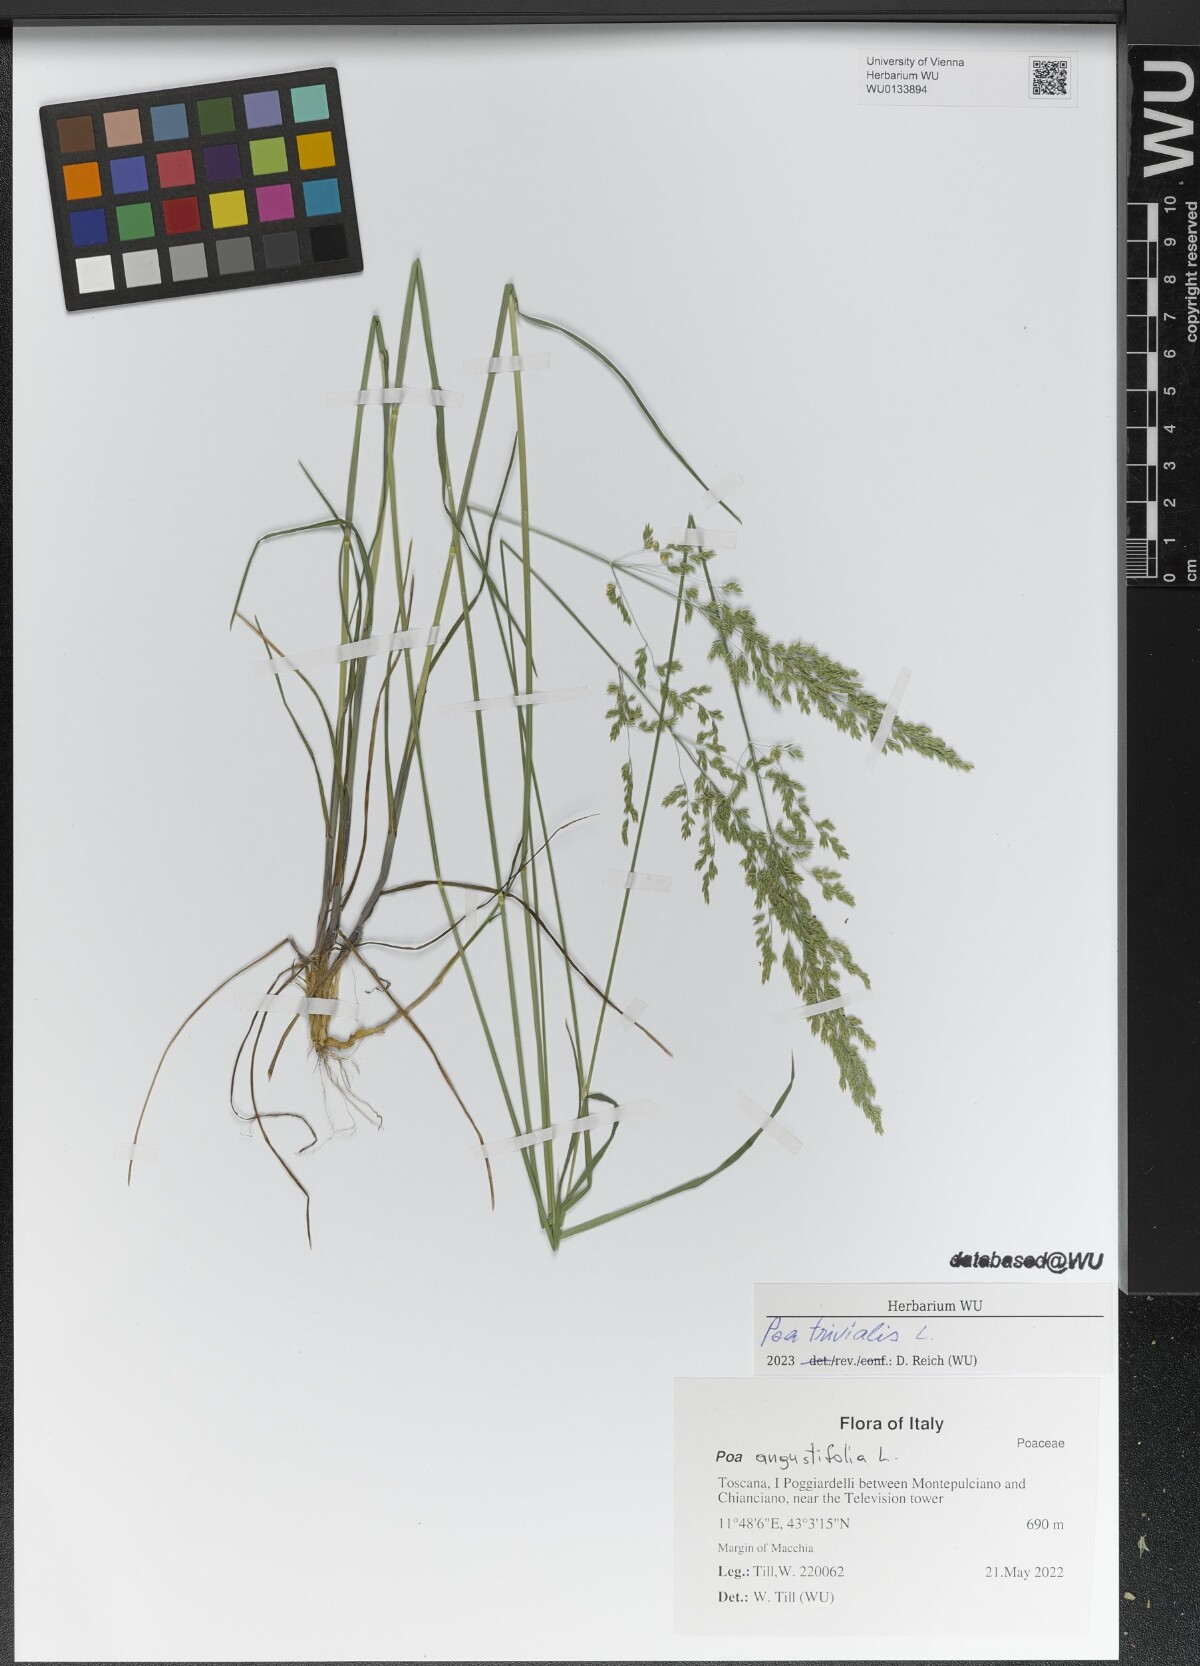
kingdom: Plantae
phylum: Tracheophyta
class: Liliopsida
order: Poales
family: Poaceae
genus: Poa
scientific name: Poa trivialis
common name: Rough bluegrass
